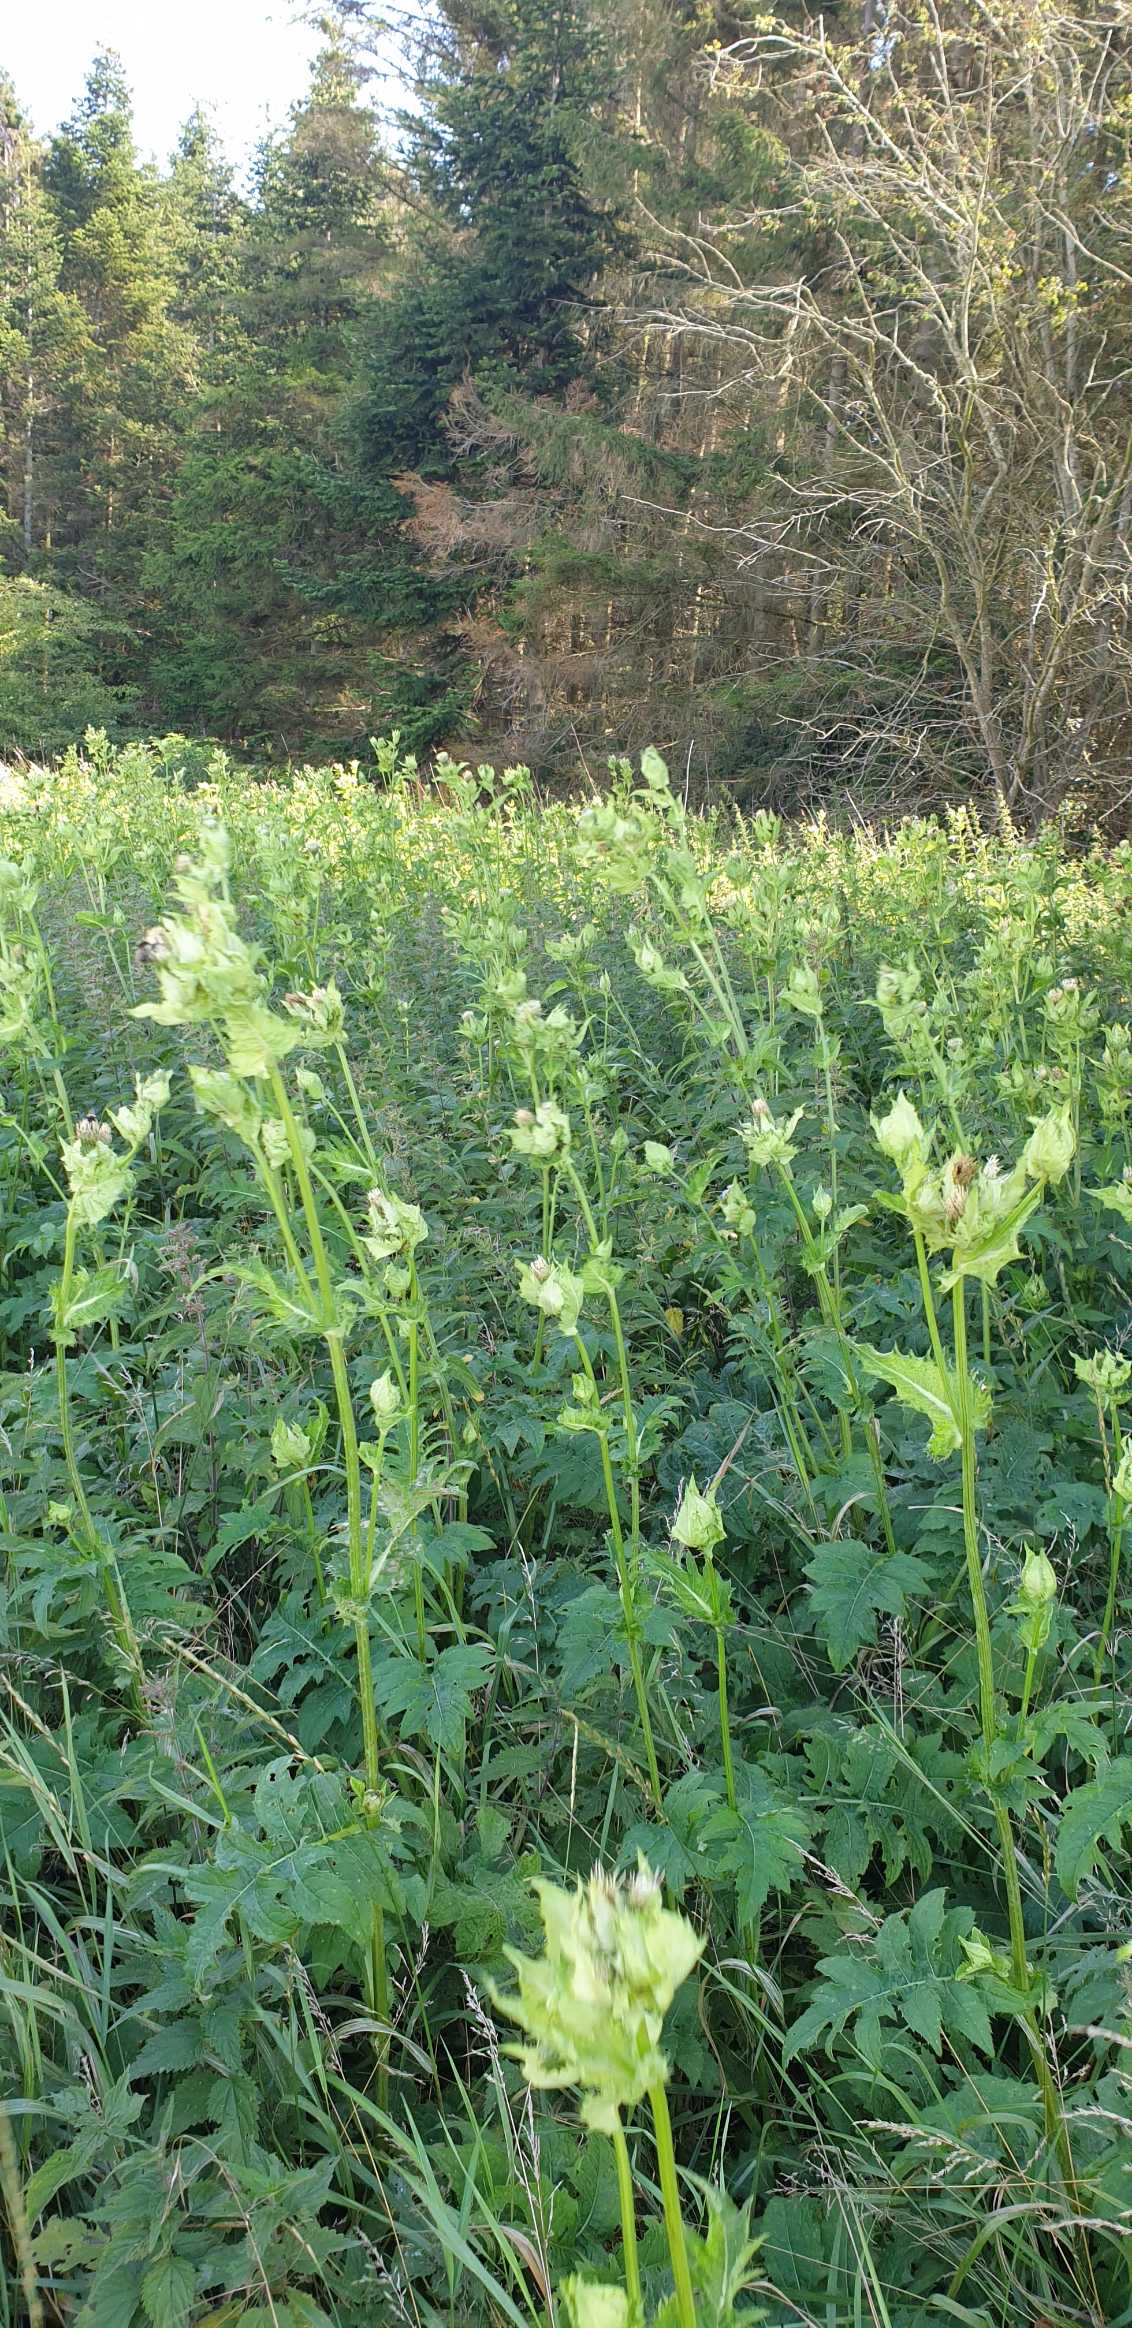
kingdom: Plantae
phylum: Tracheophyta
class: Magnoliopsida
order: Asterales
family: Asteraceae
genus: Cirsium
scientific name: Cirsium oleraceum
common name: Kål-tidsel
